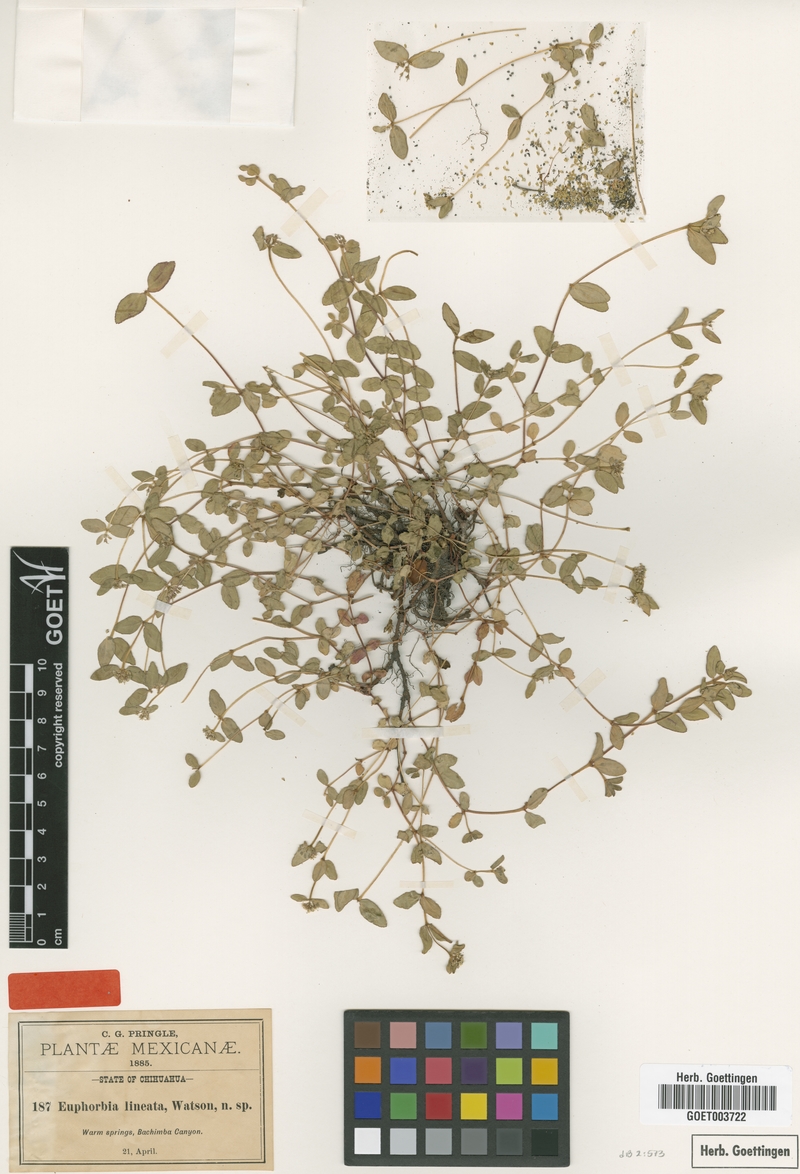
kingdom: Plantae
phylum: Tracheophyta
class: Magnoliopsida
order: Malpighiales
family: Euphorbiaceae
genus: Euphorbia
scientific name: Euphorbia lineata
